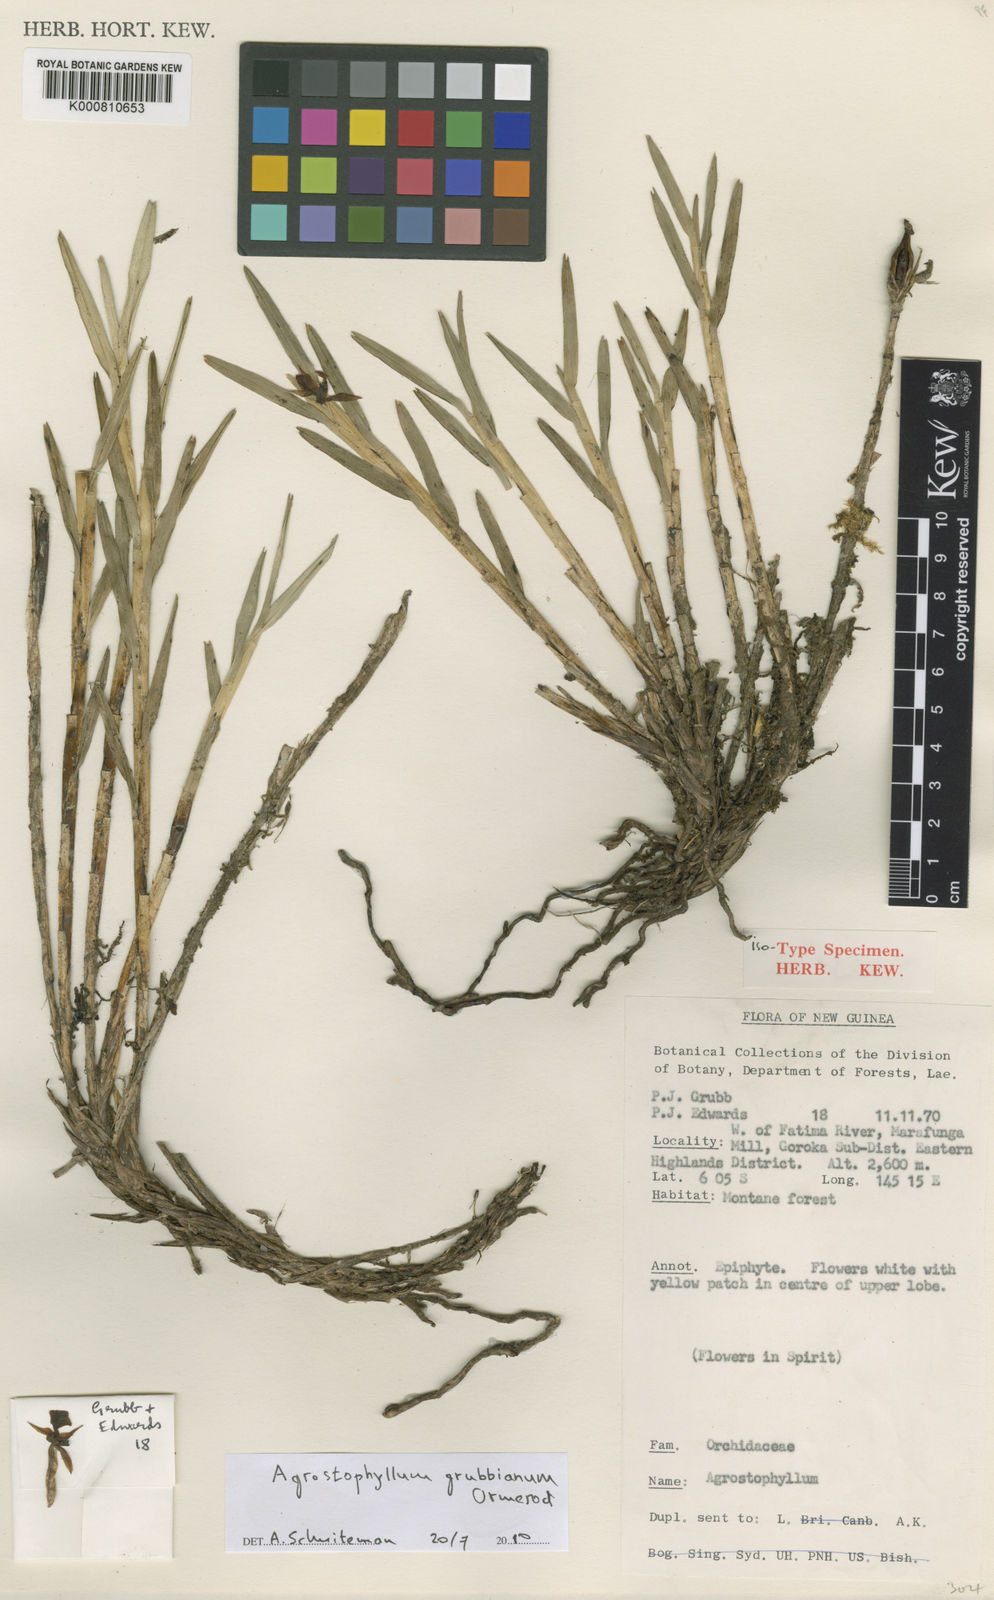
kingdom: Plantae
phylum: Tracheophyta
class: Liliopsida
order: Asparagales
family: Orchidaceae
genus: Agrostophyllum
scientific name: Agrostophyllum grubbianum
